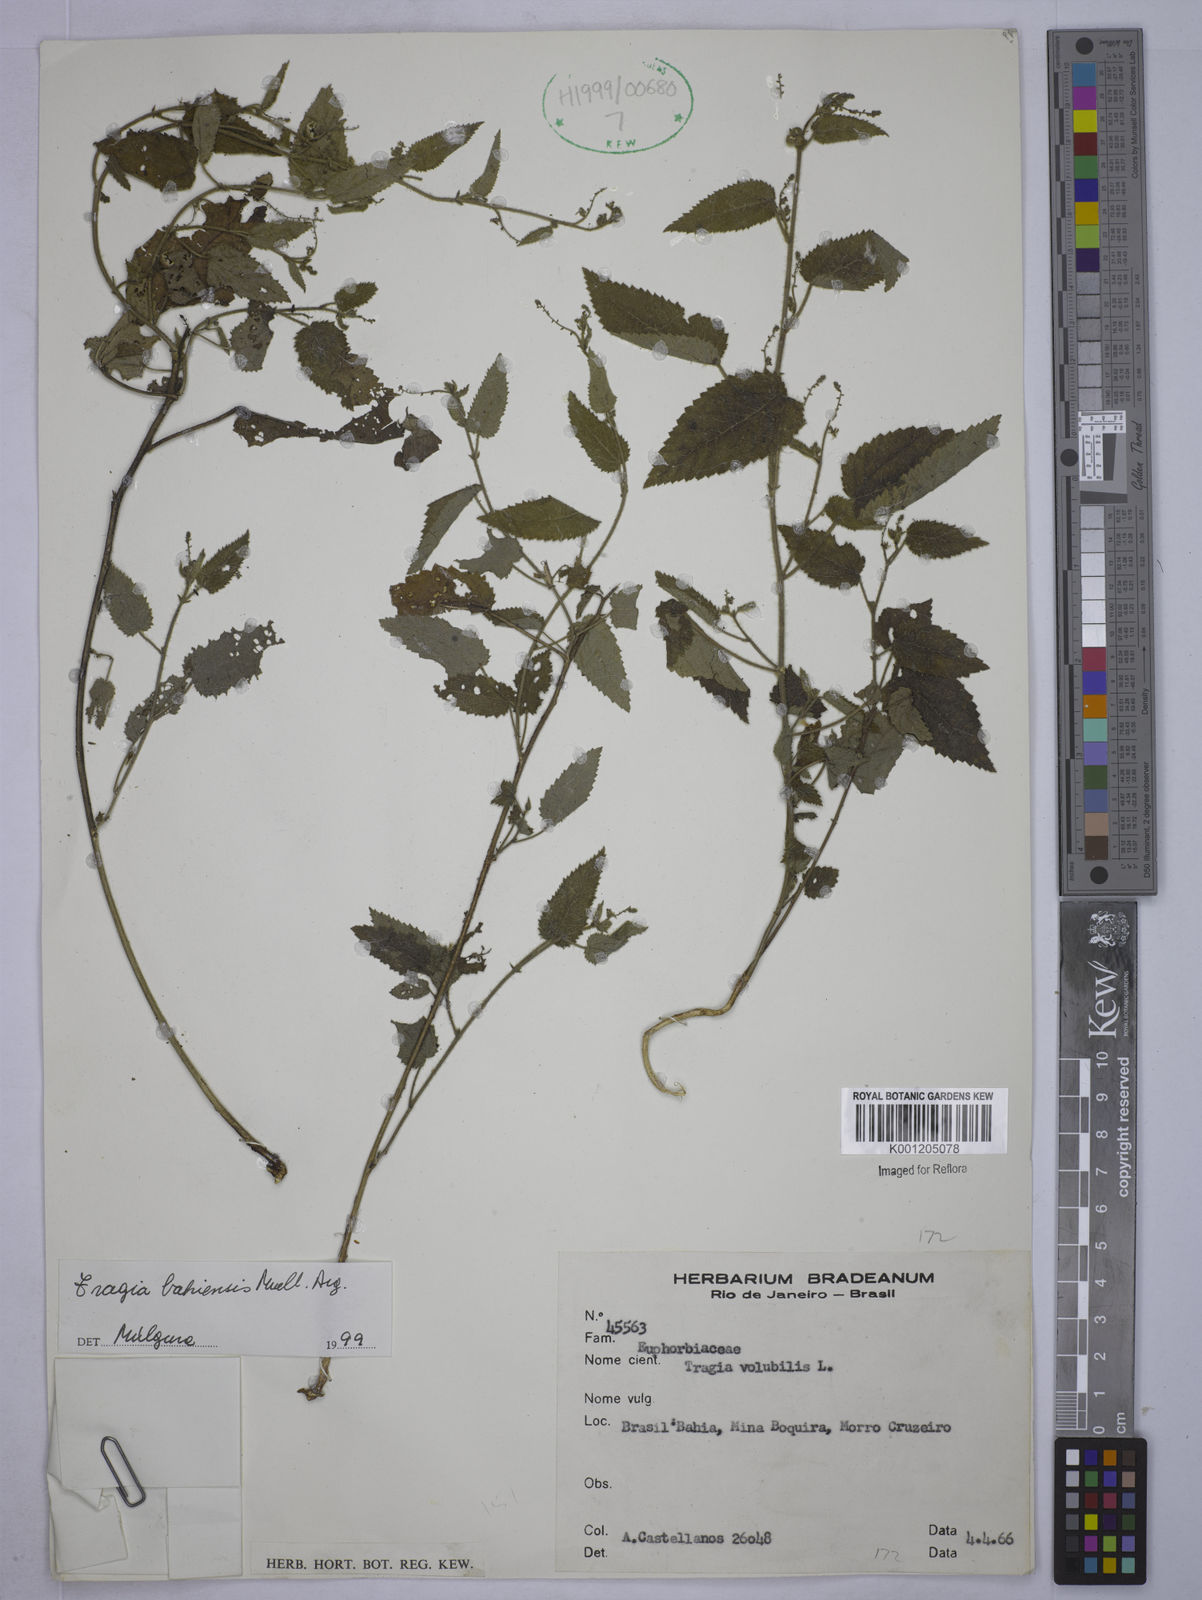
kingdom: Plantae
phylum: Tracheophyta
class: Magnoliopsida
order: Malpighiales
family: Euphorbiaceae
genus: Tragia
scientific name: Tragia
